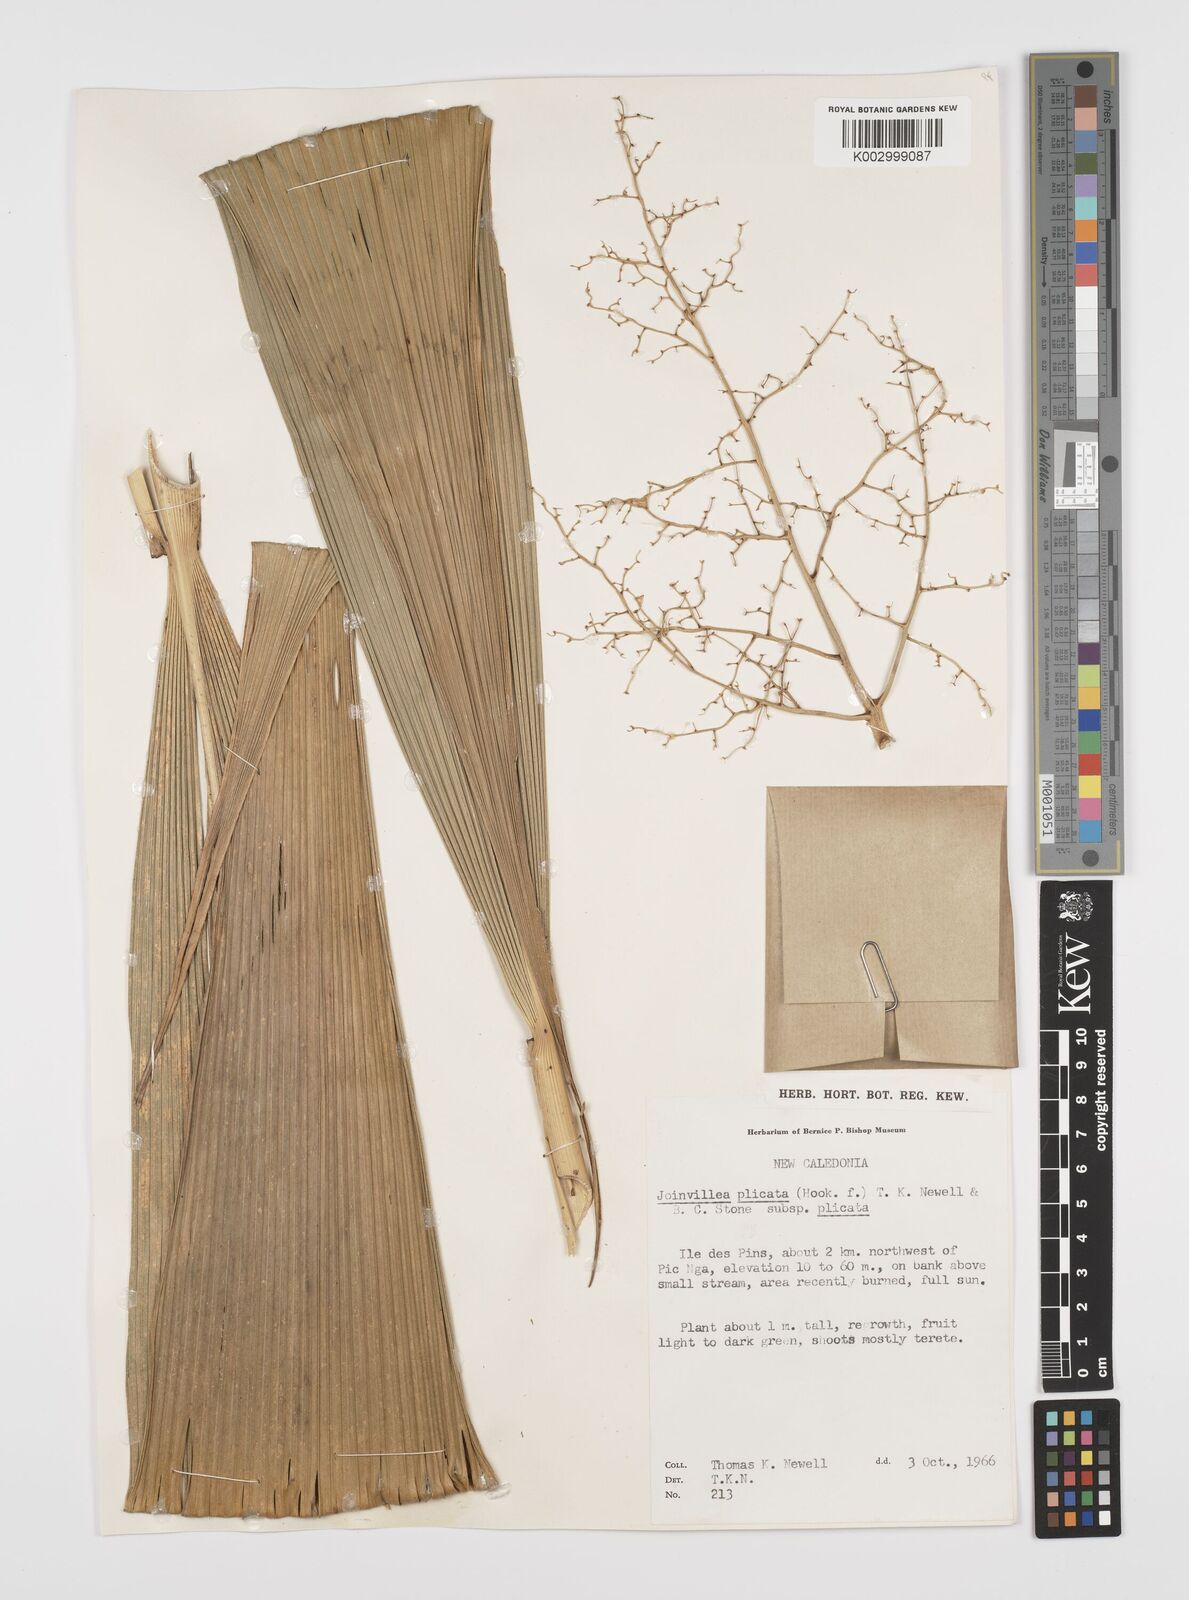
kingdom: Plantae
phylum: Tracheophyta
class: Liliopsida
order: Poales
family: Joinvilleaceae
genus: Joinvillea
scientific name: Joinvillea plicata
